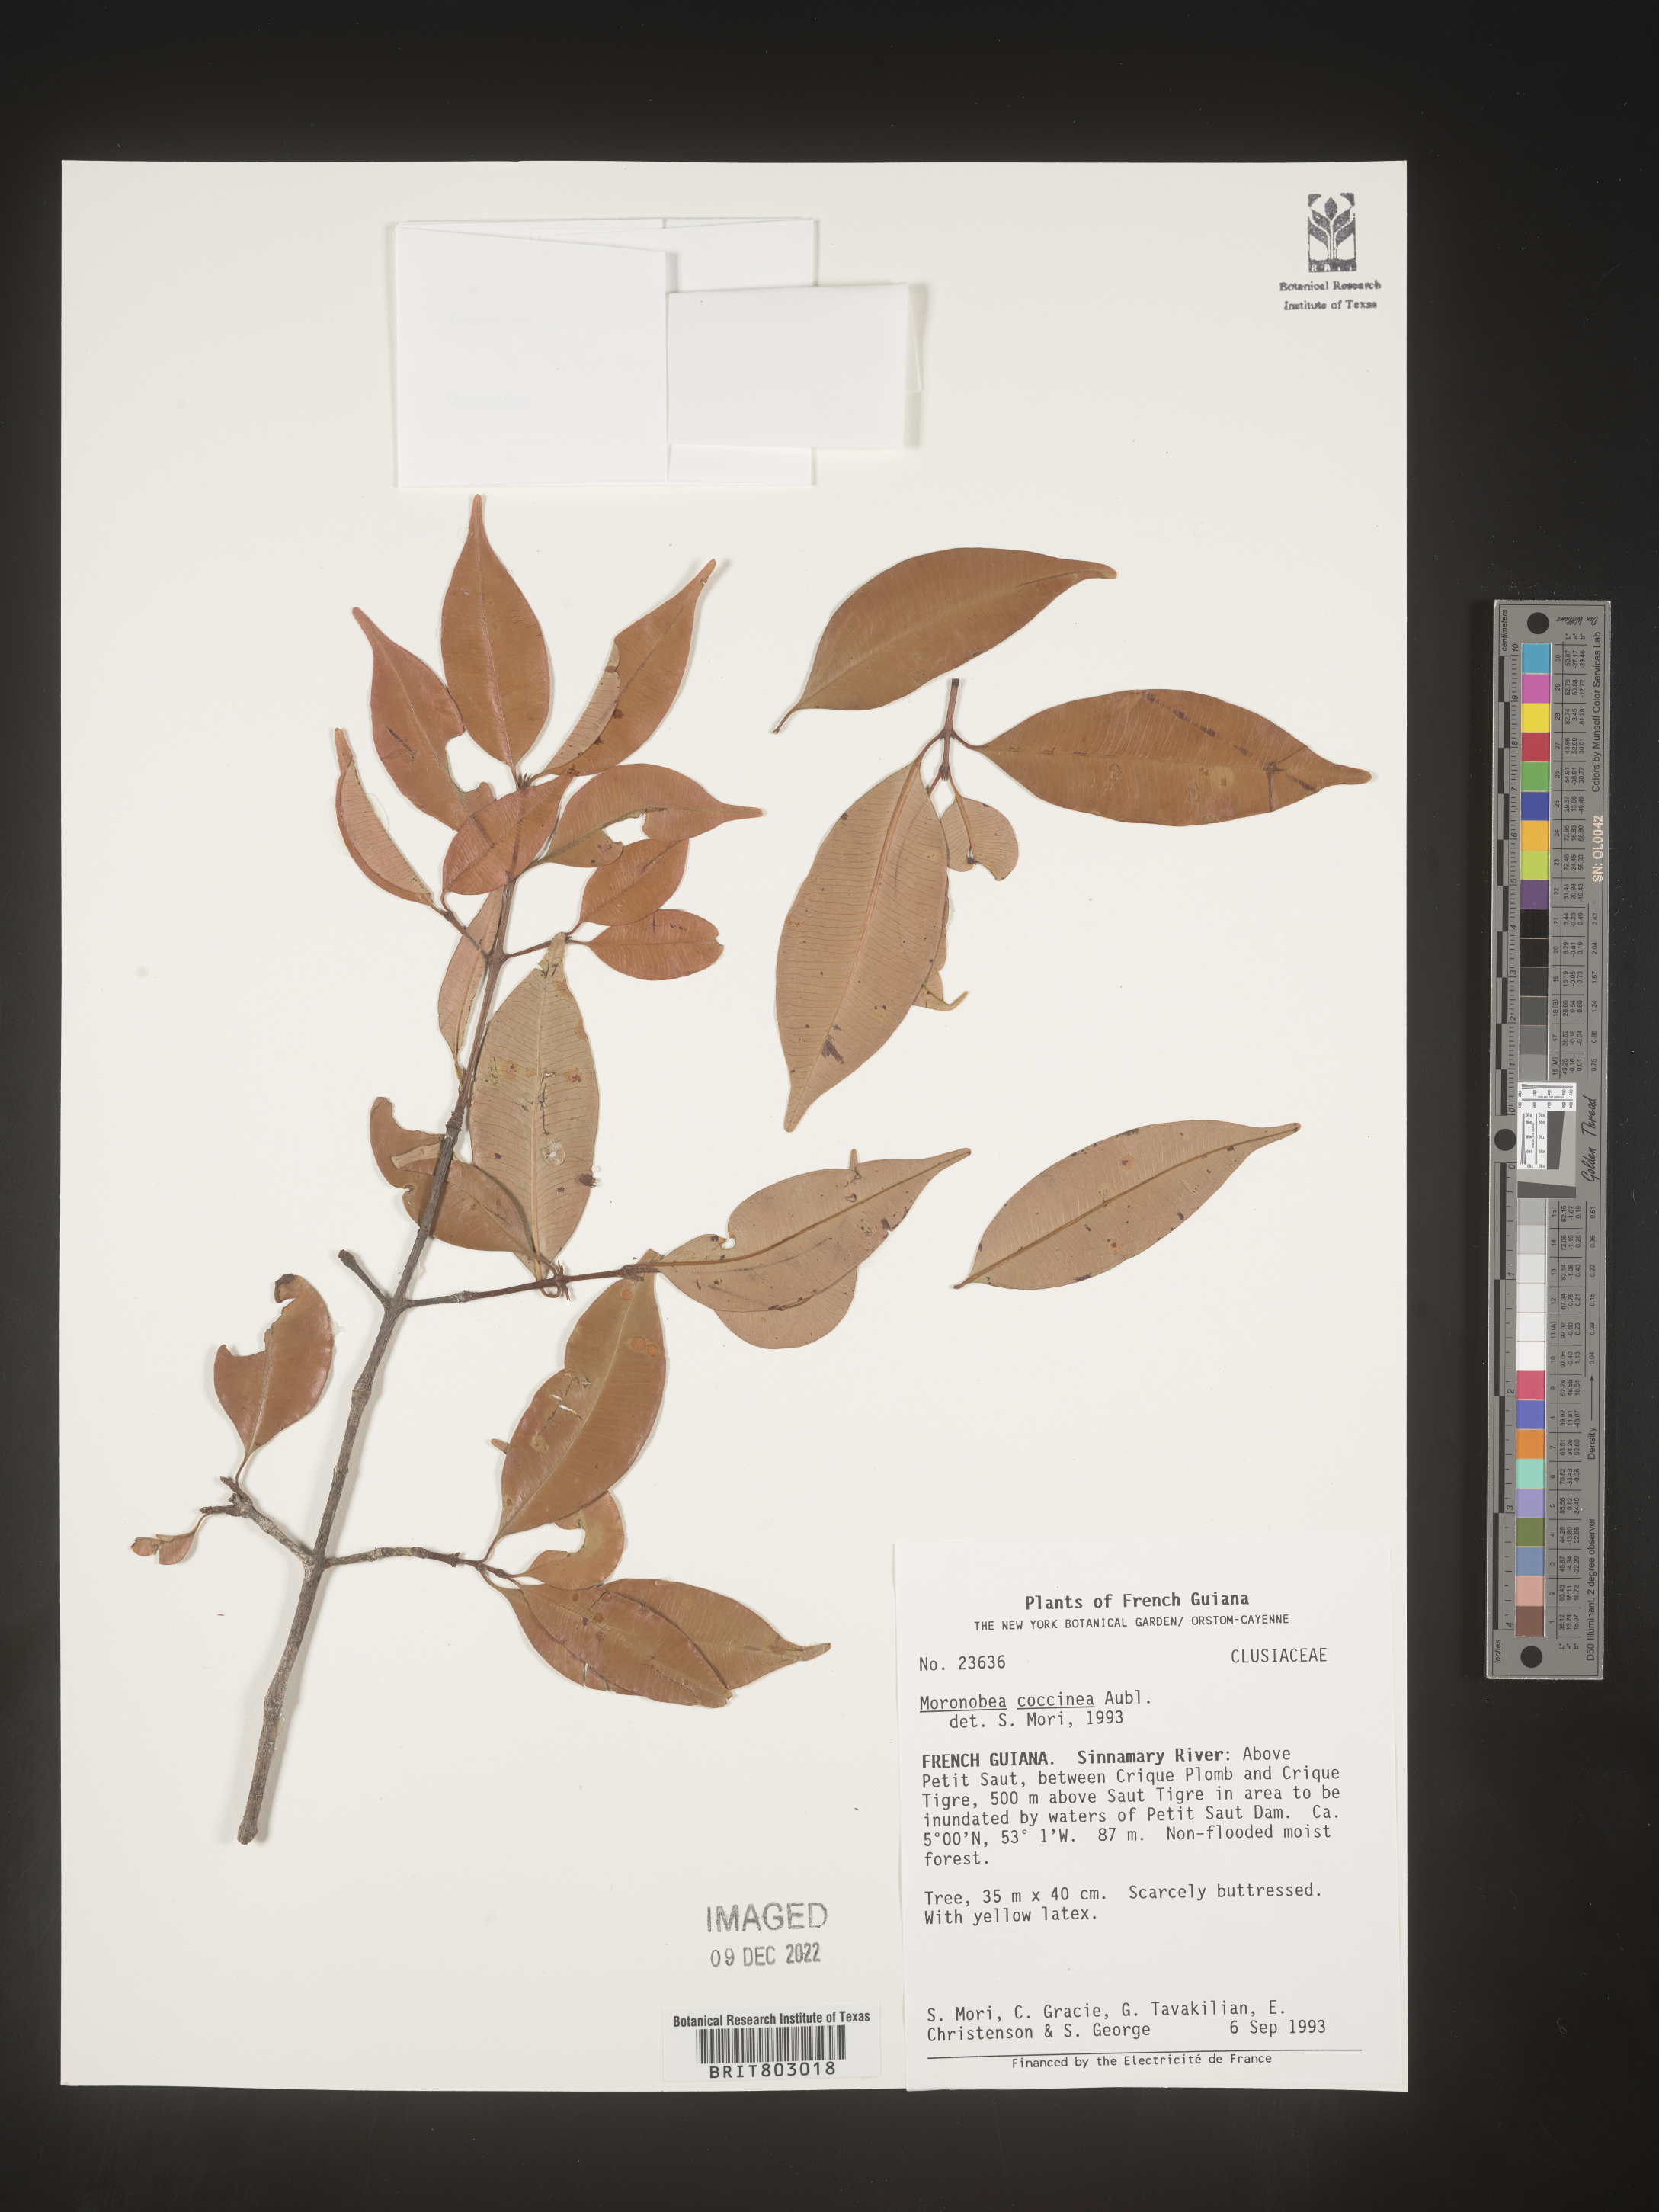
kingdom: Plantae
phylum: Tracheophyta
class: Magnoliopsida
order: Malpighiales
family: Clusiaceae
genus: Moronobea
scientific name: Moronobea
